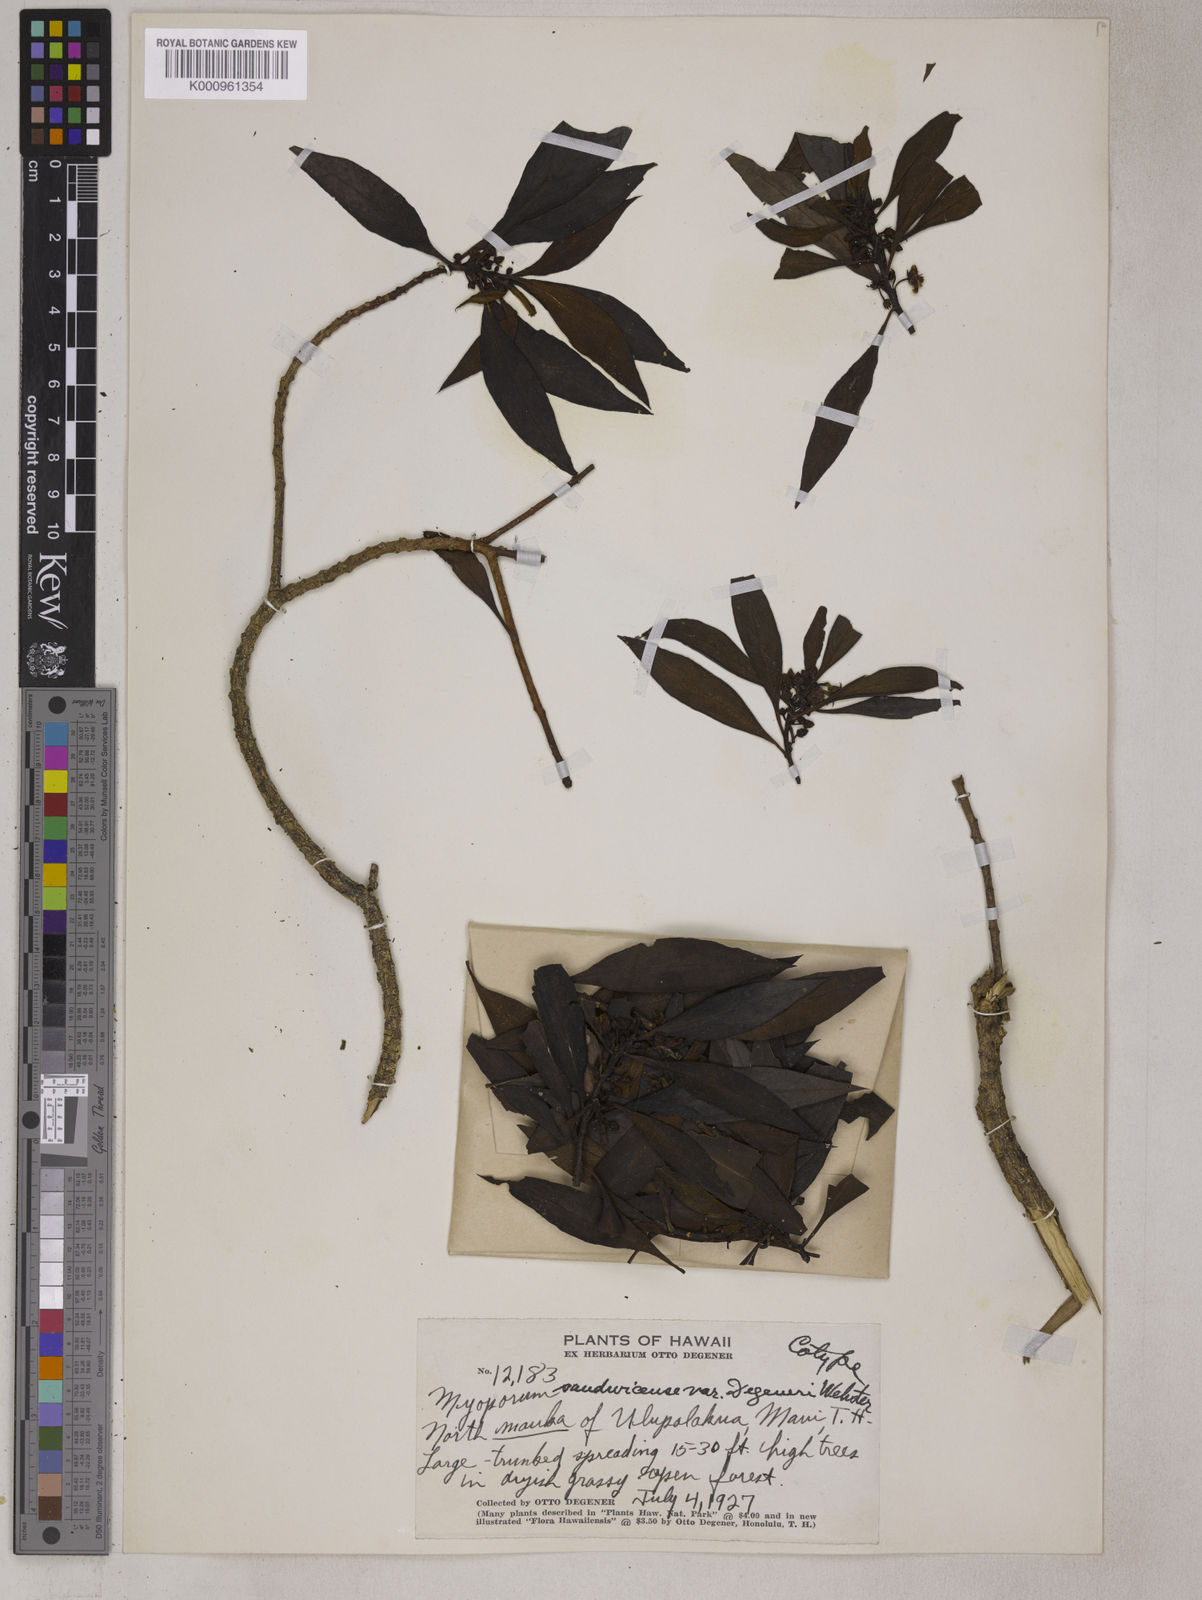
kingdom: Plantae
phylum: Tracheophyta
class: Magnoliopsida
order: Lamiales
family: Scrophulariaceae
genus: Myoporum
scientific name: Myoporum sandwicense
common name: Bastard-sandalwood
